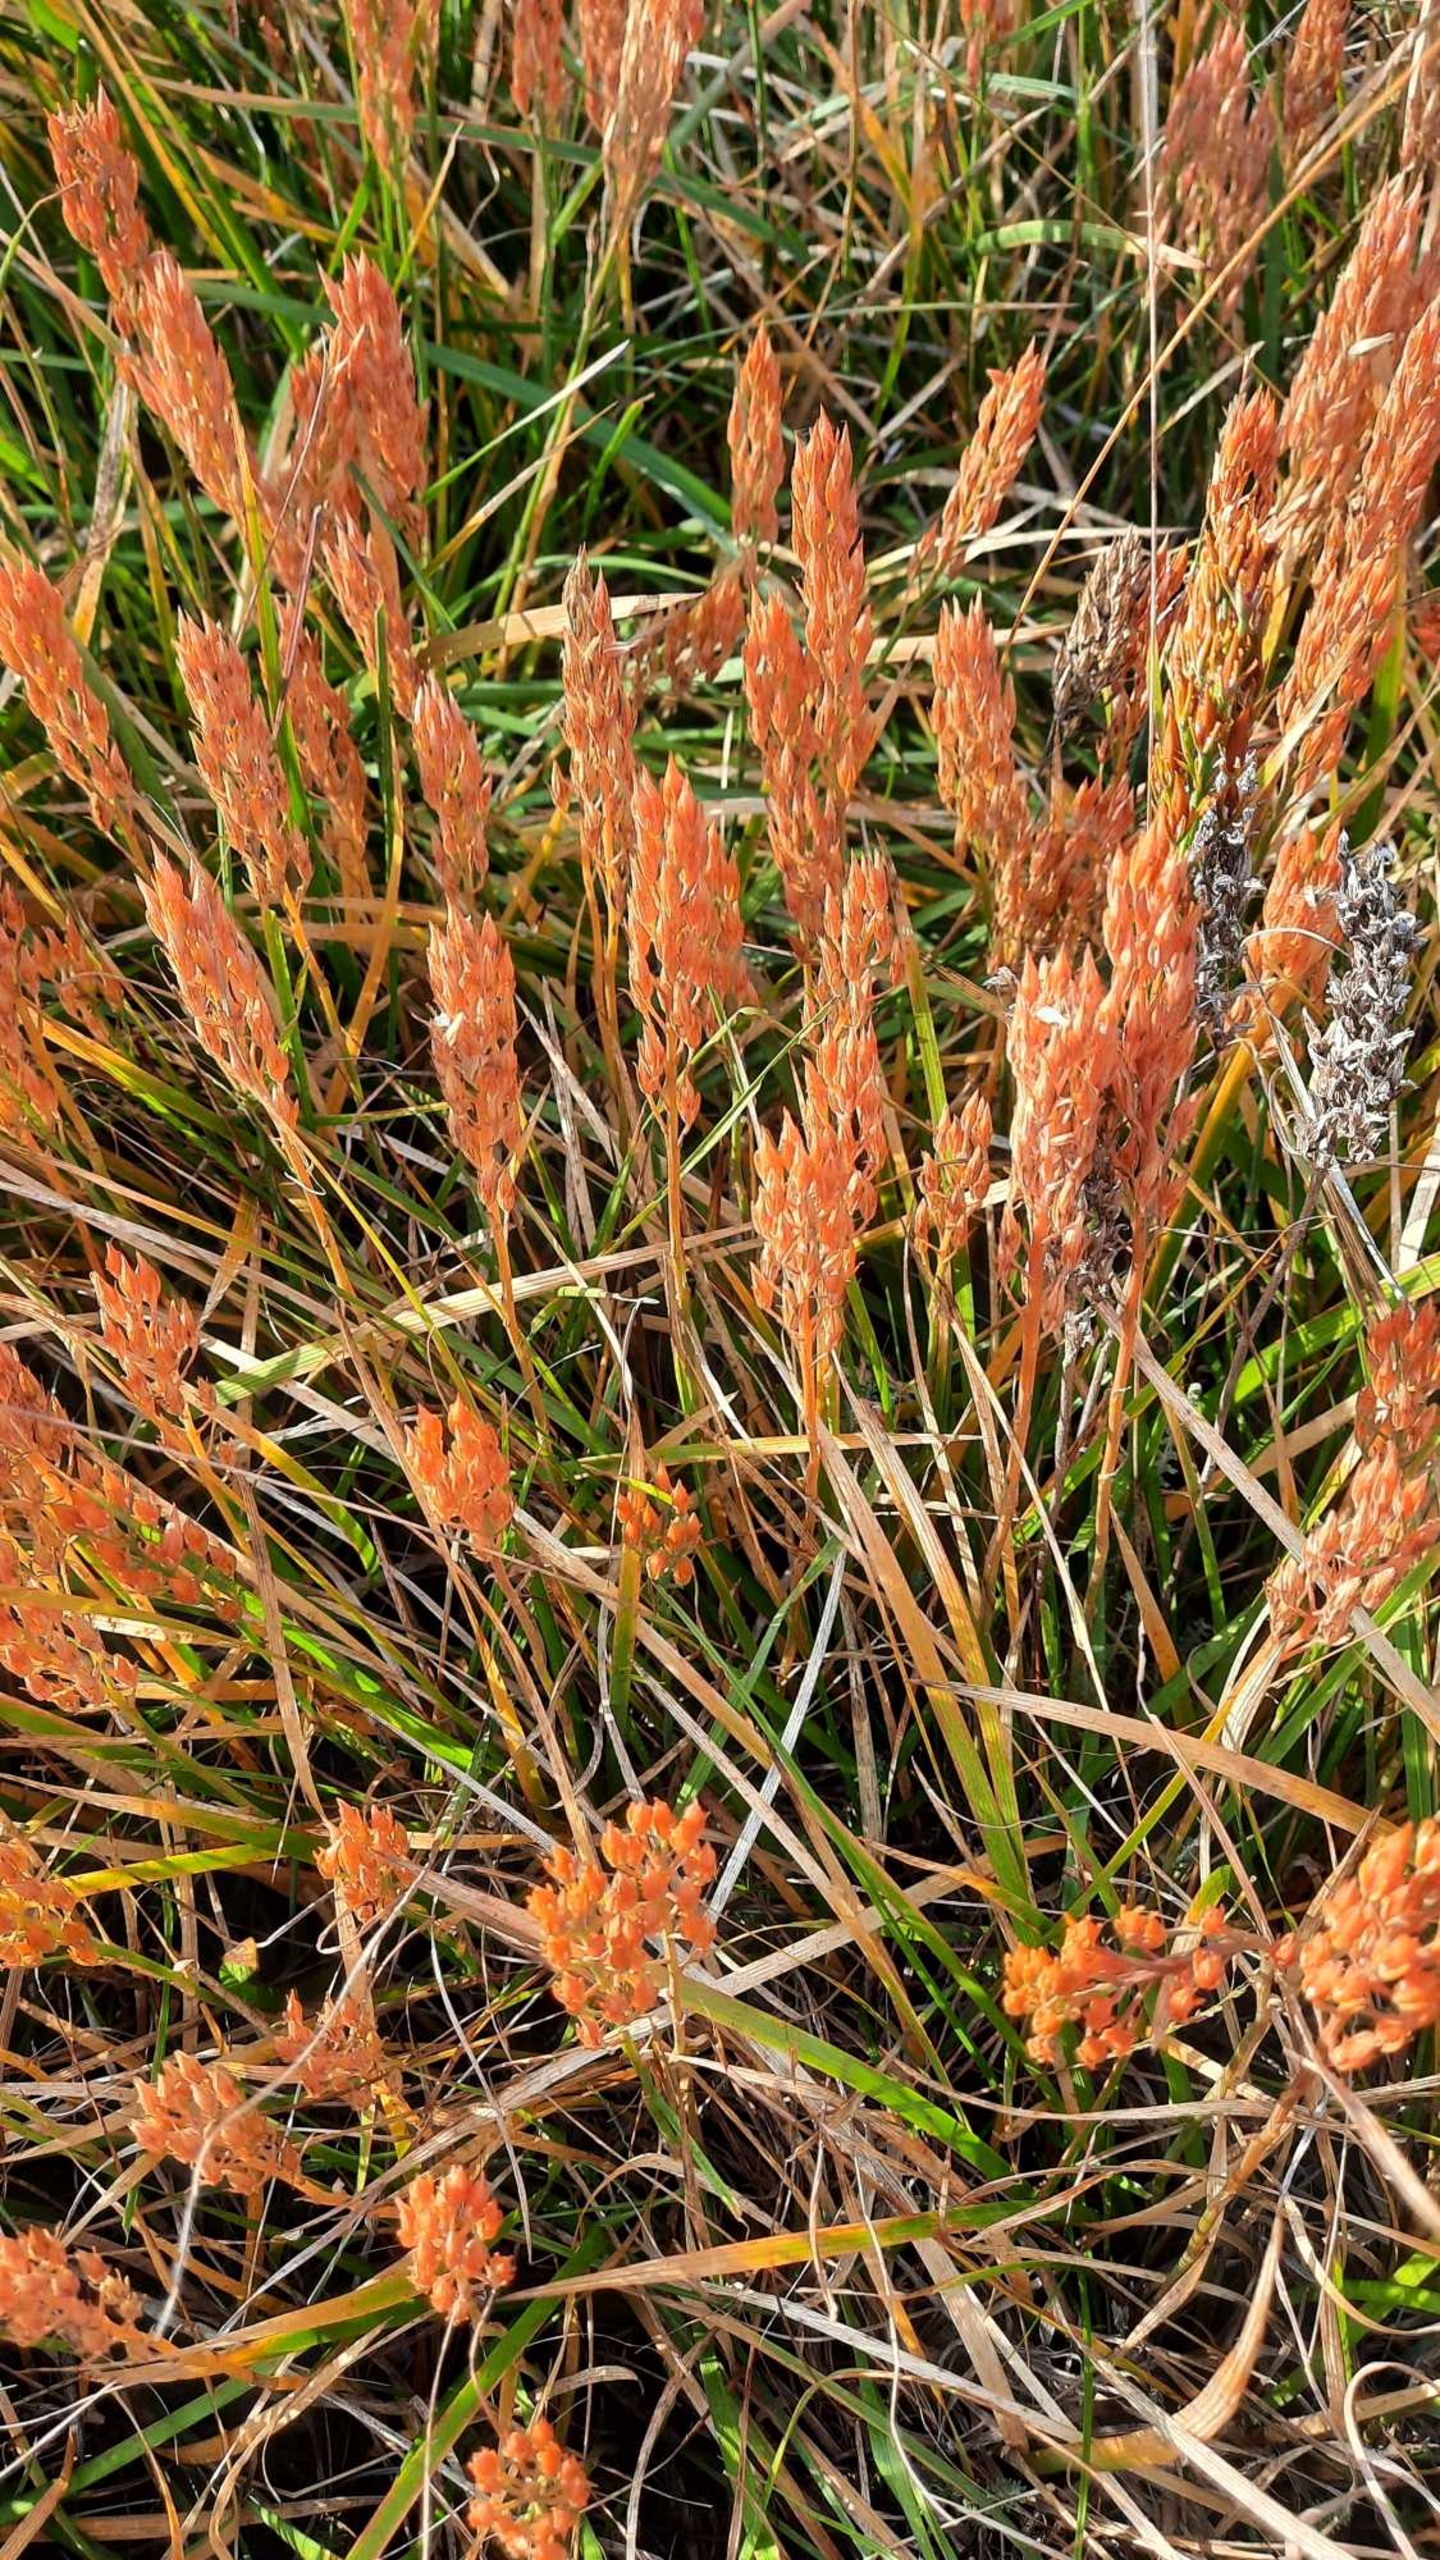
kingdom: Plantae
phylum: Tracheophyta
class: Liliopsida
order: Dioscoreales
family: Nartheciaceae
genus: Narthecium
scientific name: Narthecium ossifragum
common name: Benbræk
